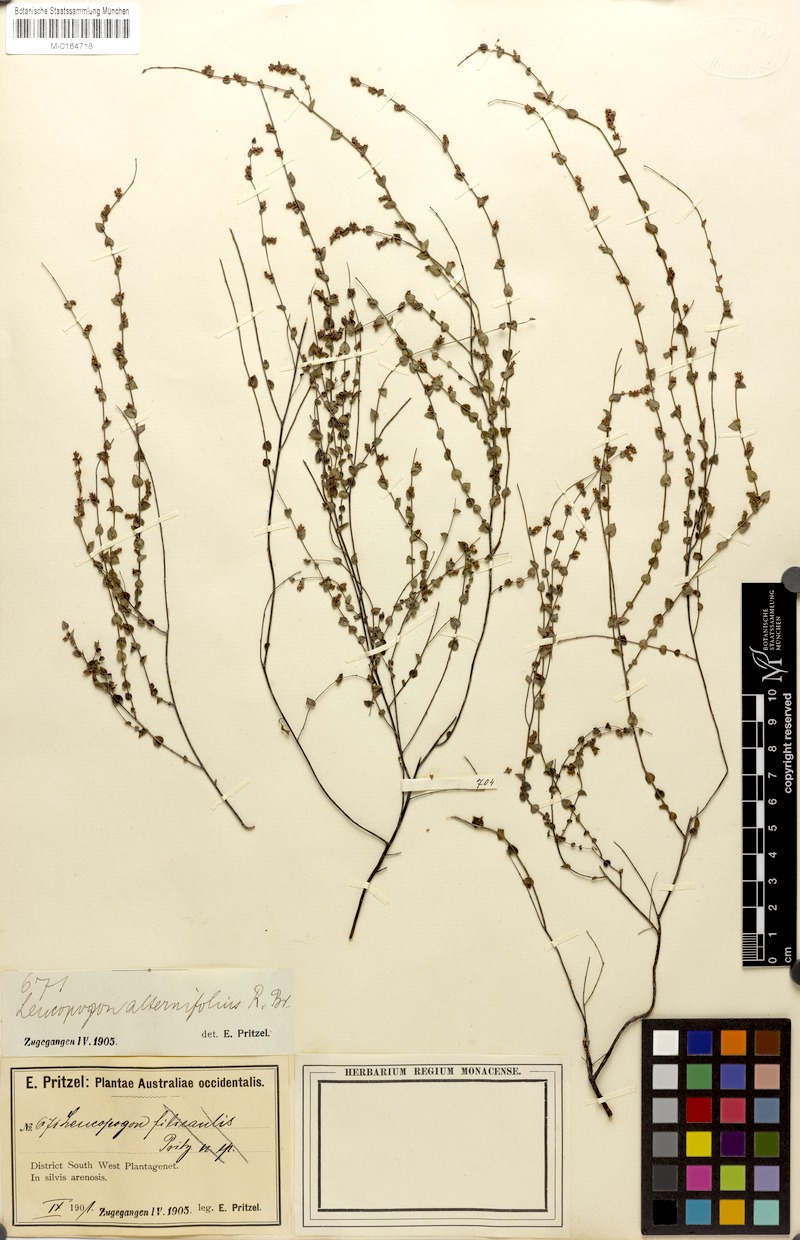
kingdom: Plantae
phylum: Tracheophyta
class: Magnoliopsida
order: Ericales
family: Ericaceae
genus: Leucopogon
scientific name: Leucopogon alternifolius
